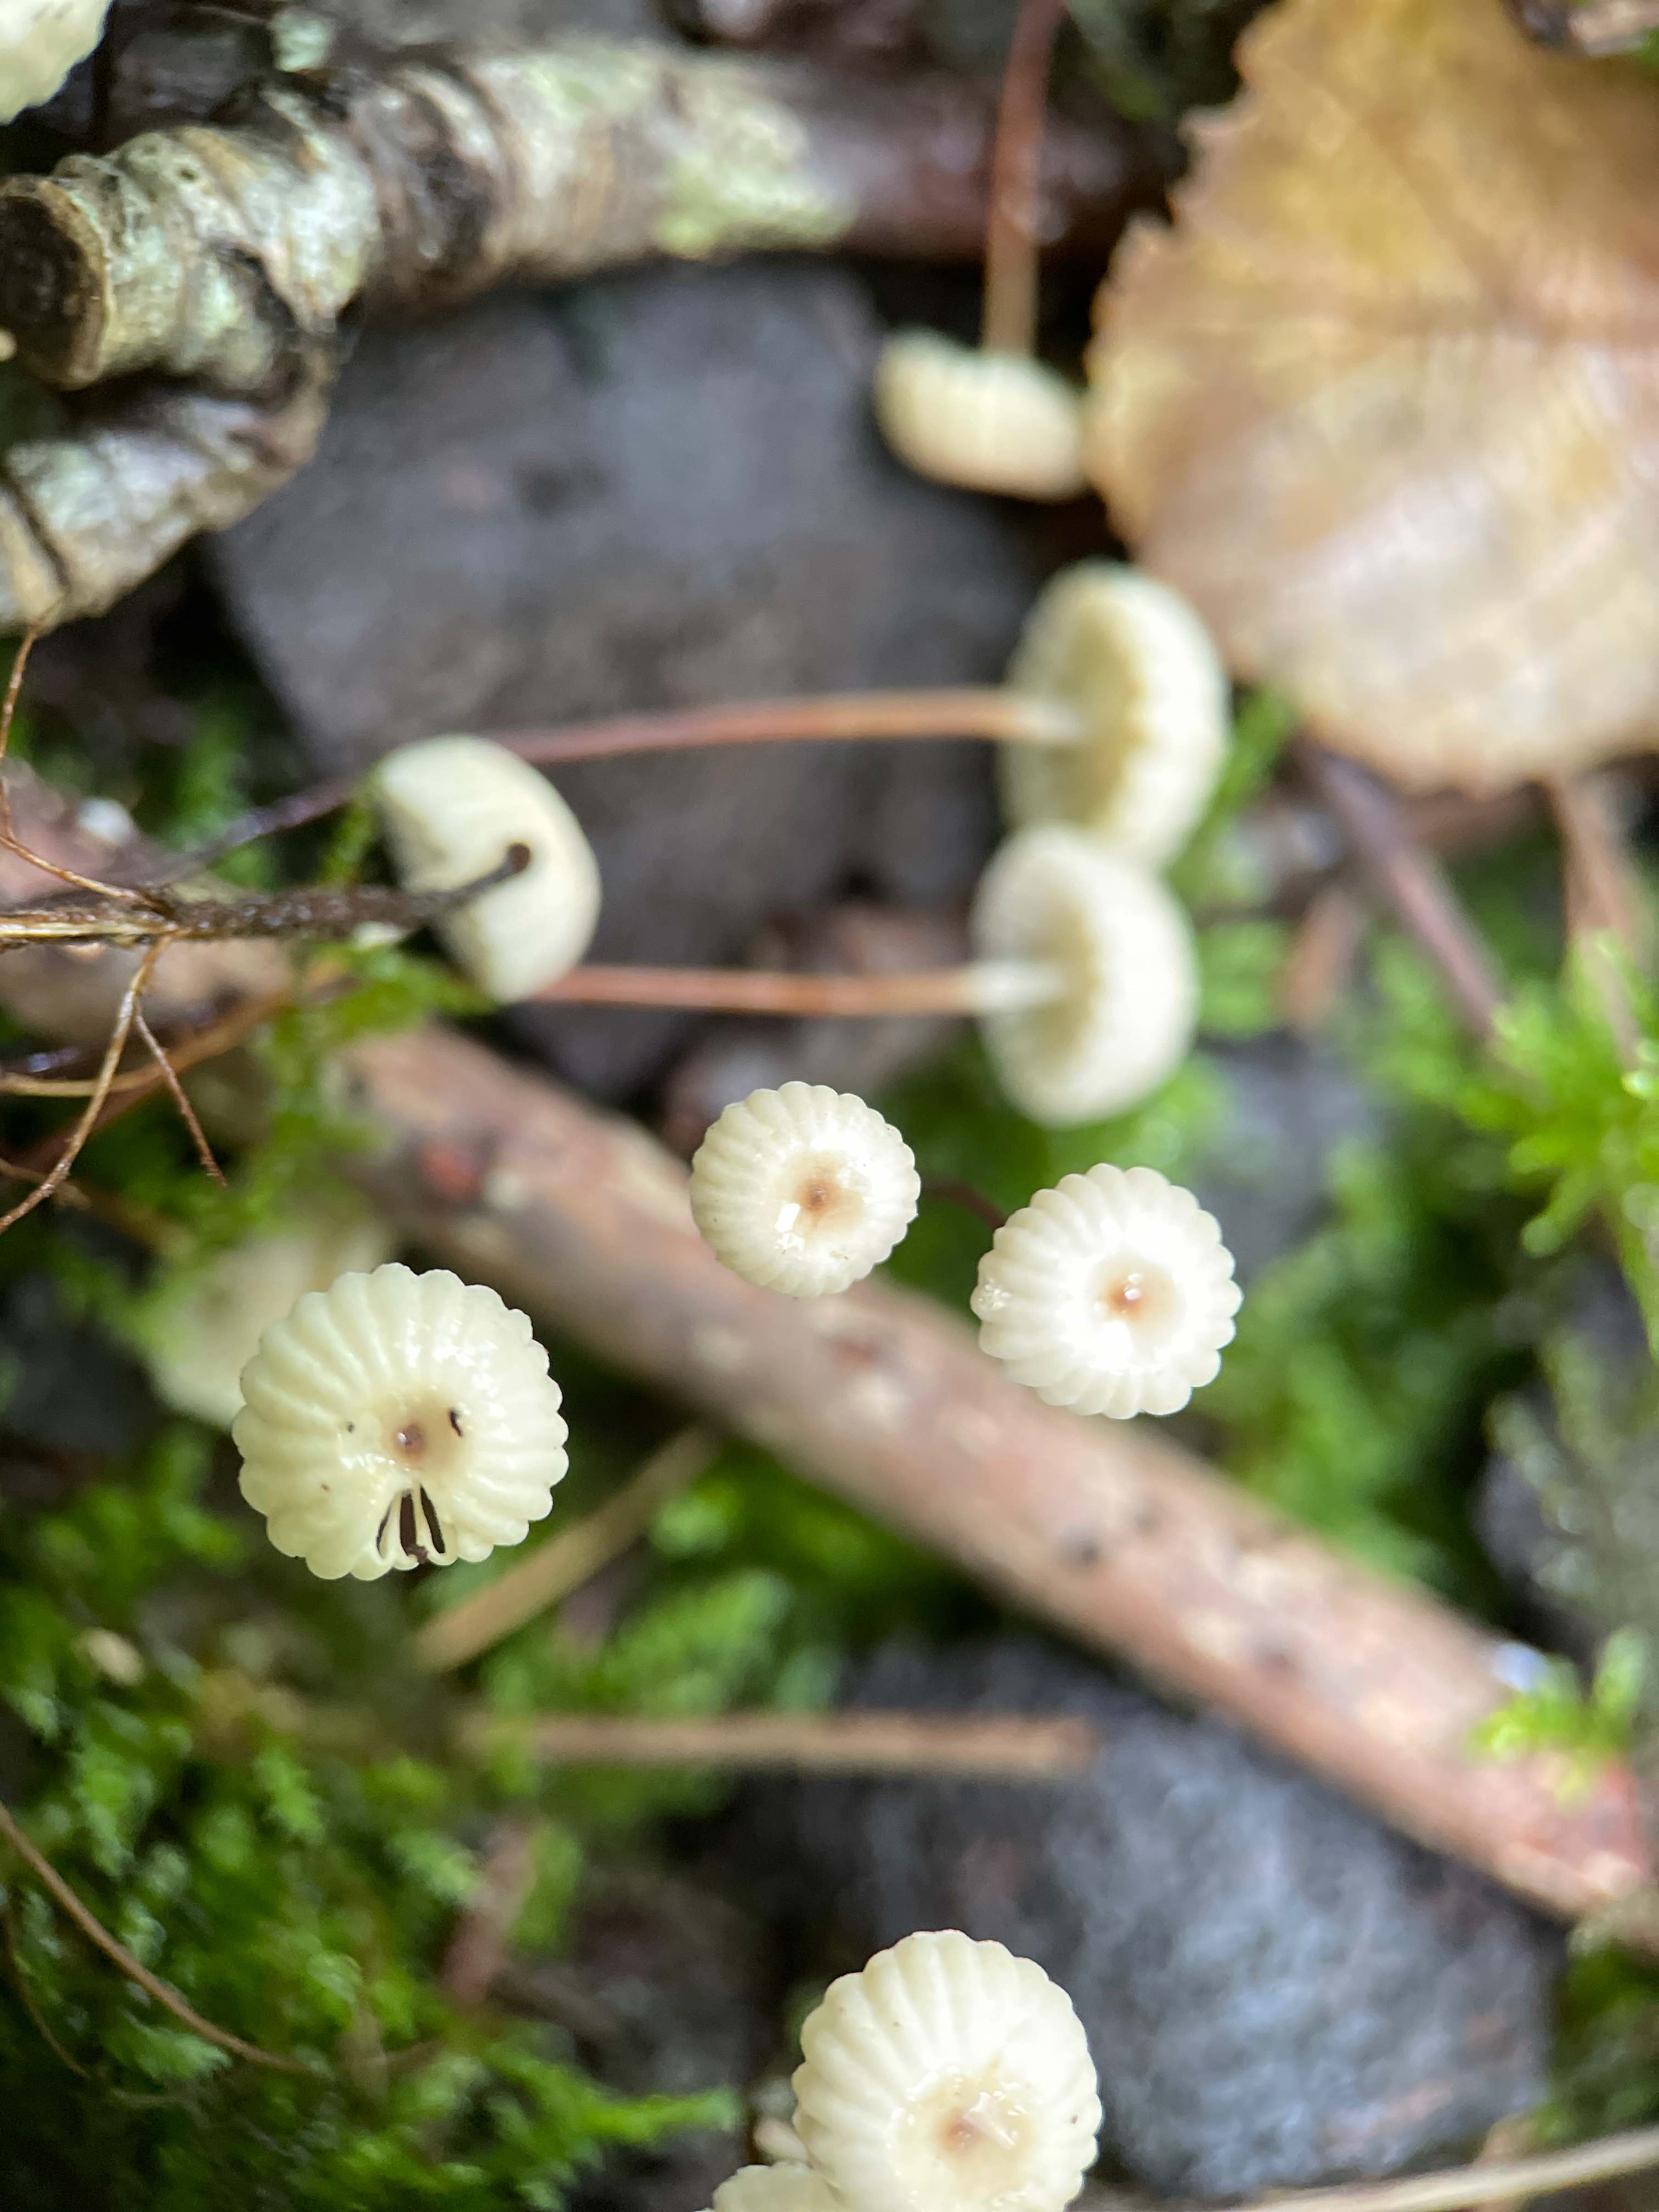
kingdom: Fungi
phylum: Basidiomycota
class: Agaricomycetes
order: Agaricales
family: Marasmiaceae
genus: Marasmius
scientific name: Marasmius rotula
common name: hjul-bruskhat
